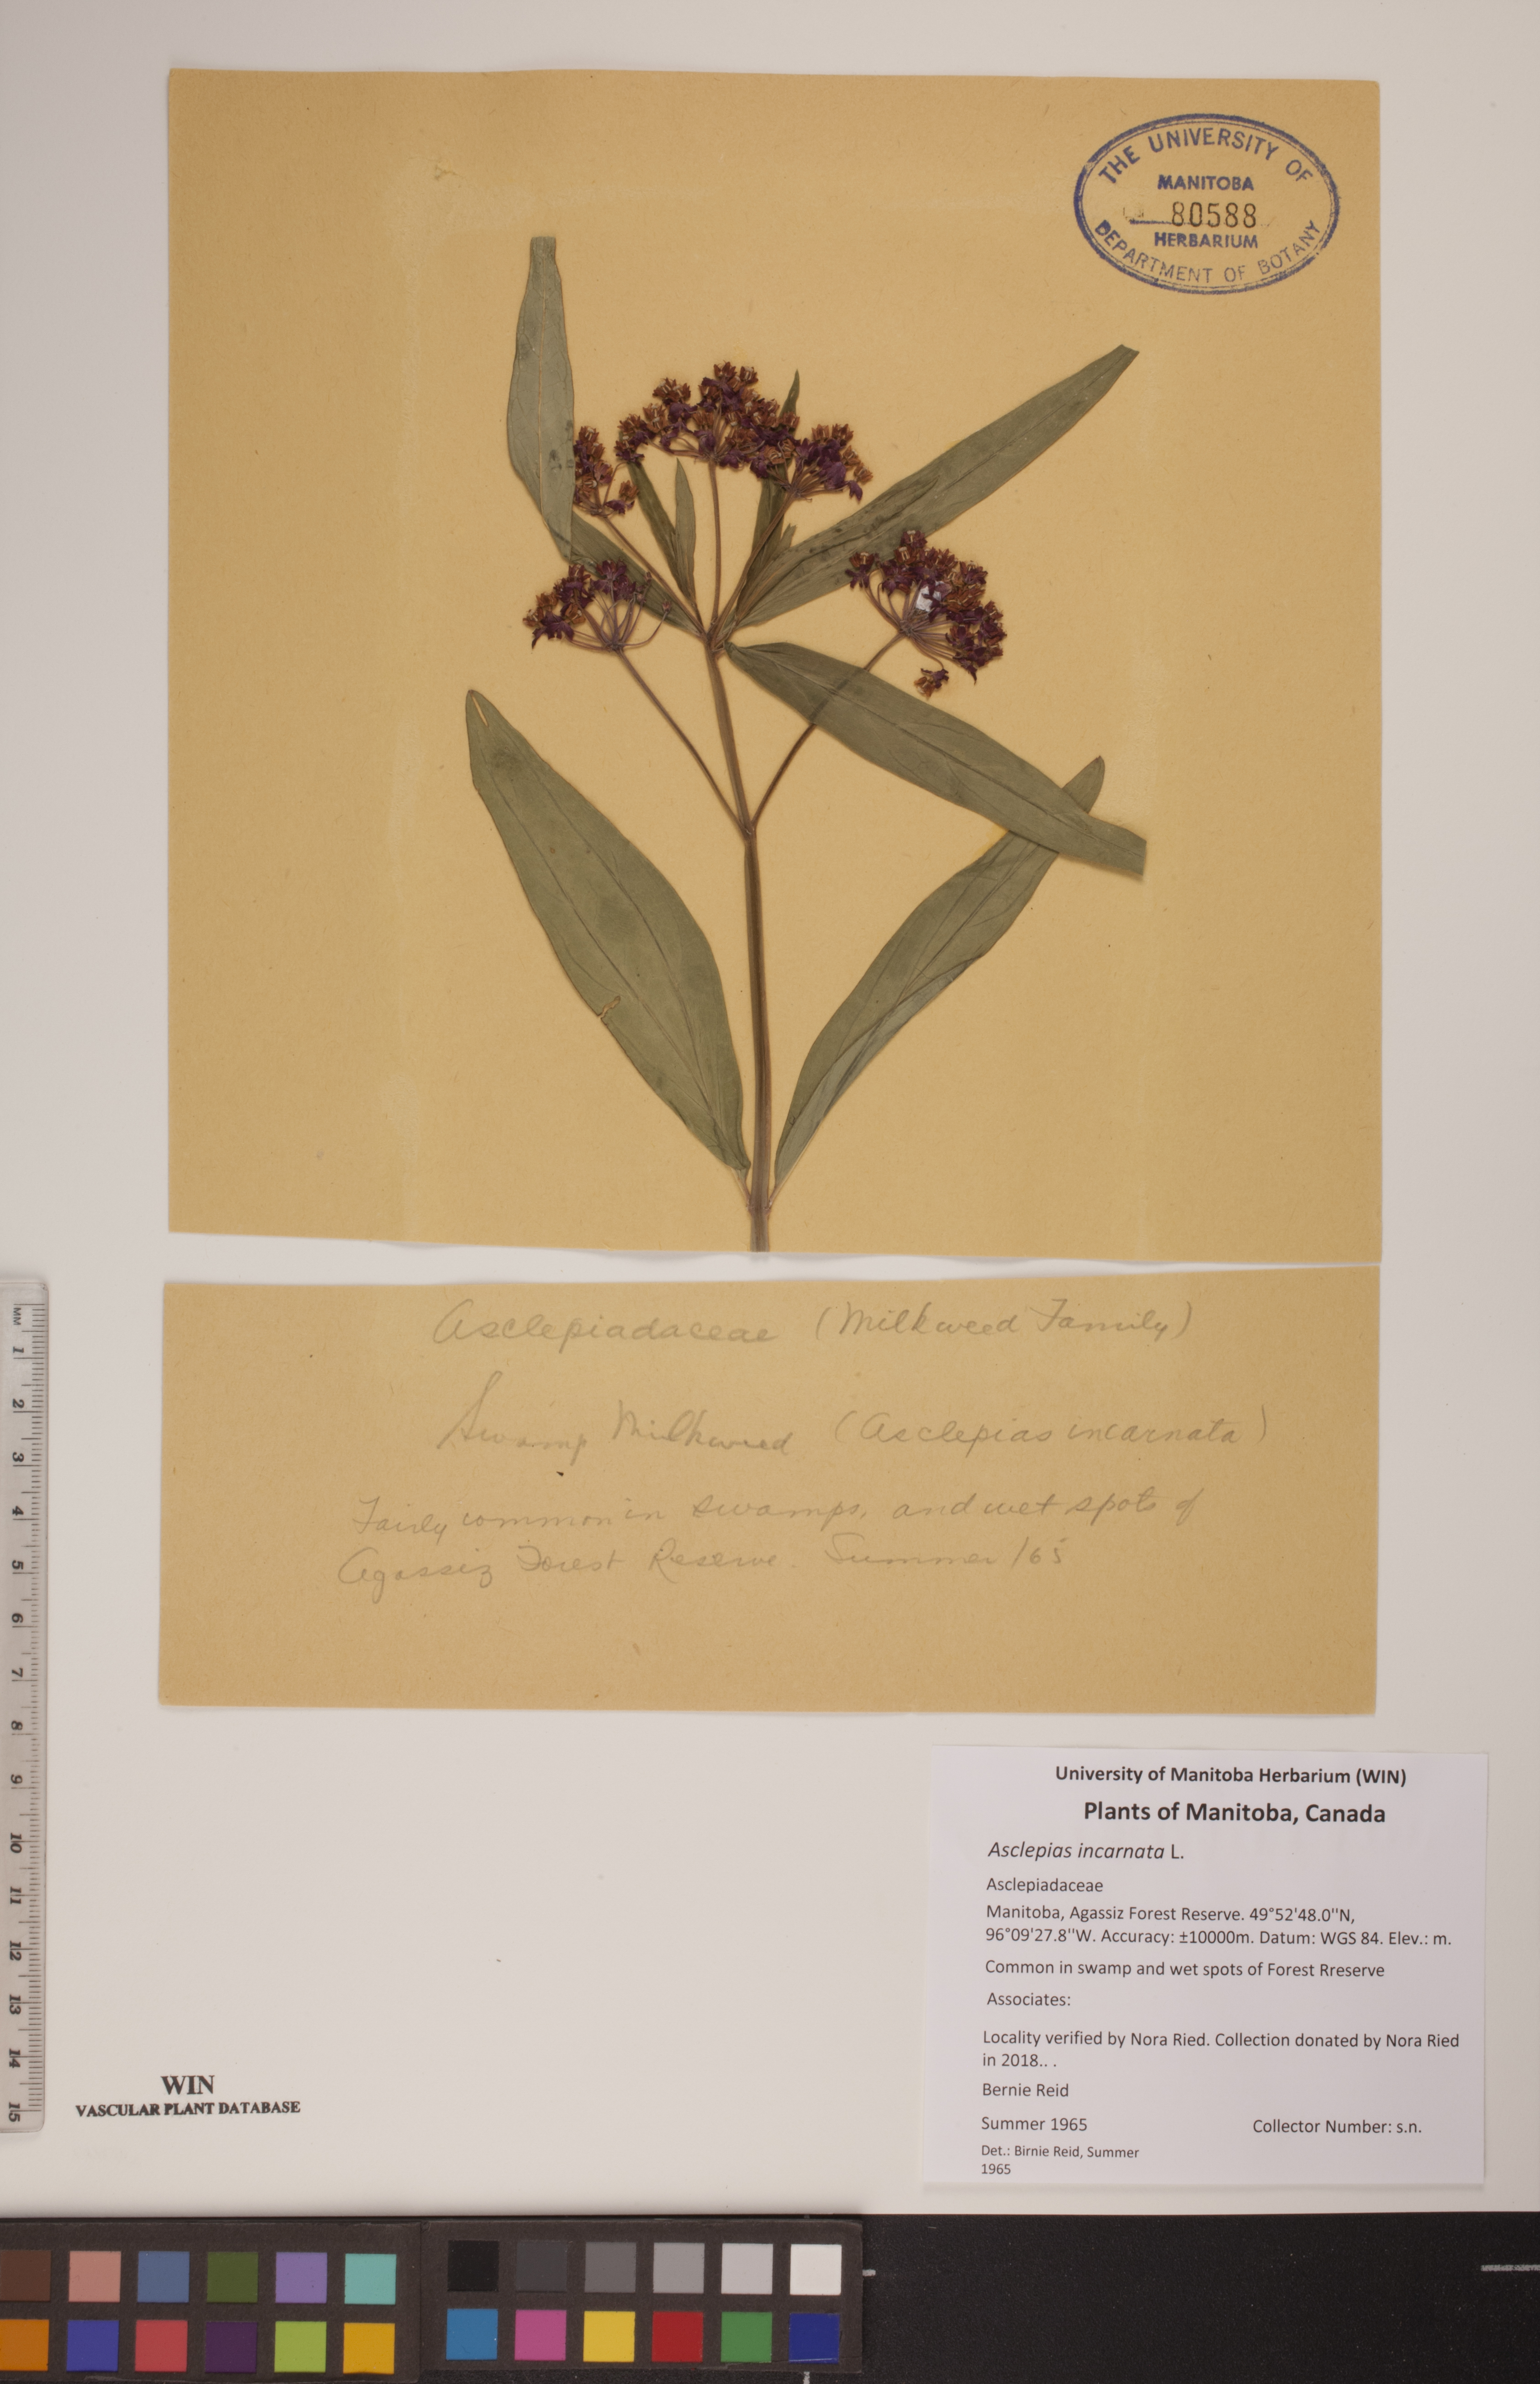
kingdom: Plantae
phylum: Tracheophyta
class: Magnoliopsida
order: Gentianales
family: Apocynaceae
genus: Asclepias
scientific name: Asclepias incarnata
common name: Swamp milkweed
